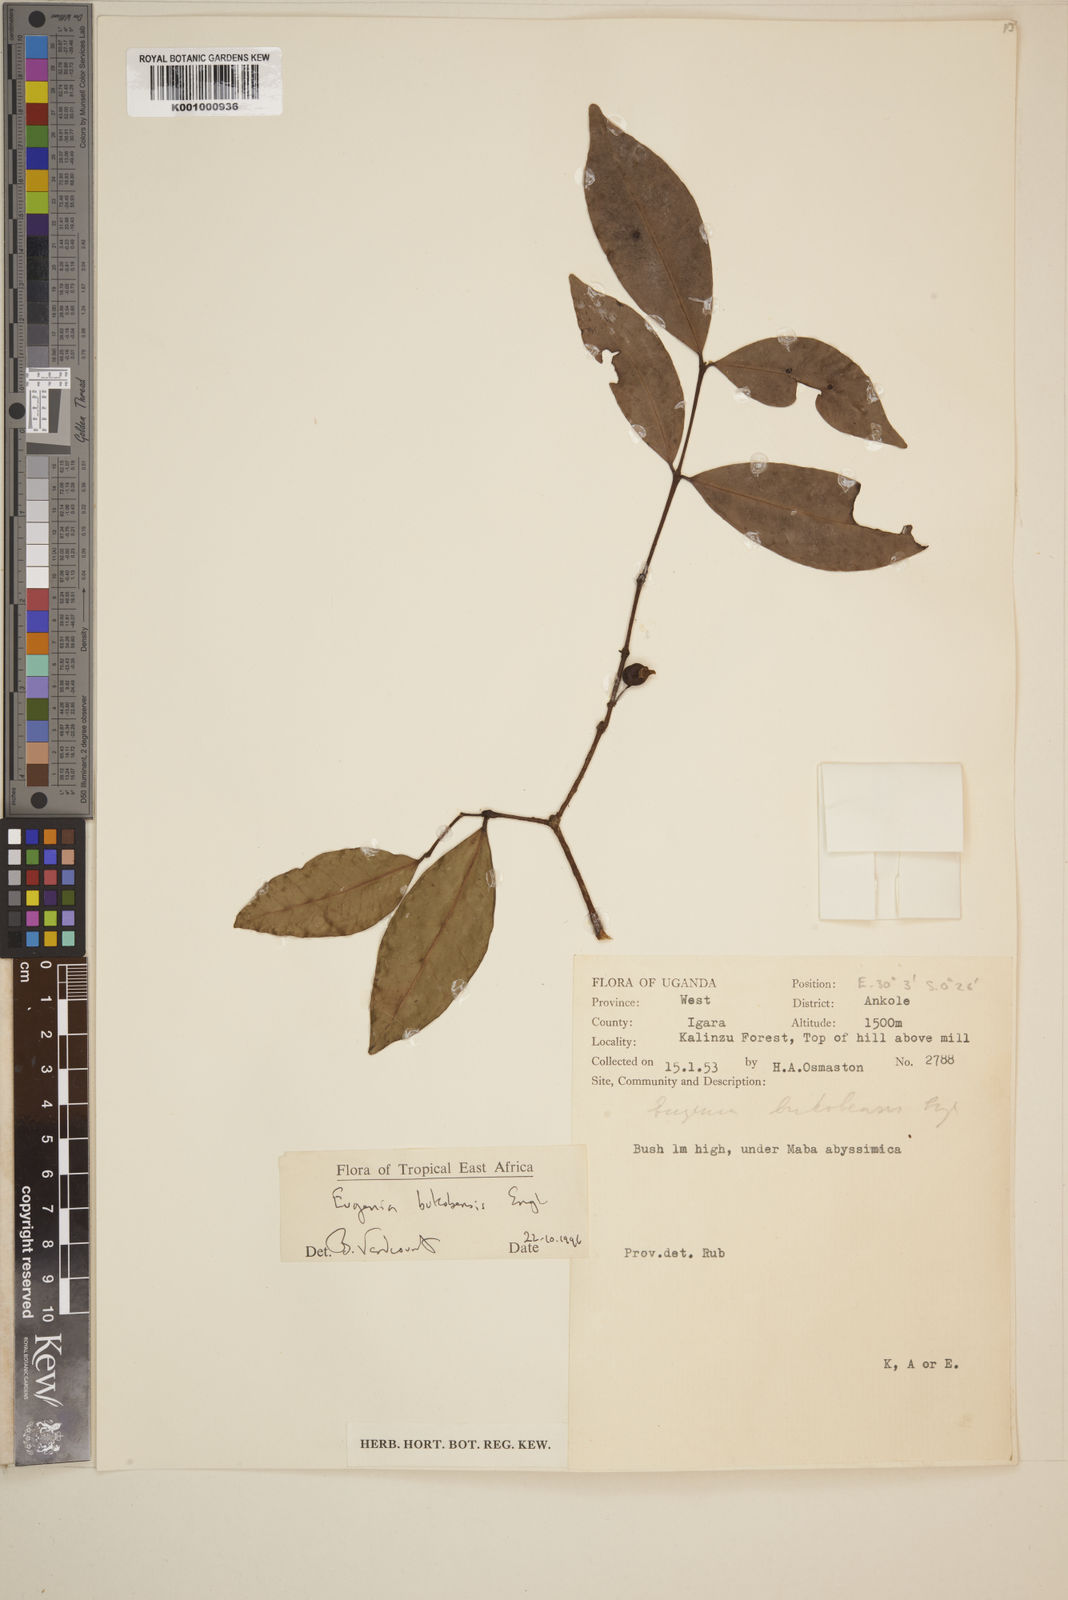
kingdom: Plantae
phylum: Tracheophyta
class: Magnoliopsida
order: Myrtales
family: Myrtaceae
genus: Eugenia
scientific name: Eugenia bukobensis
